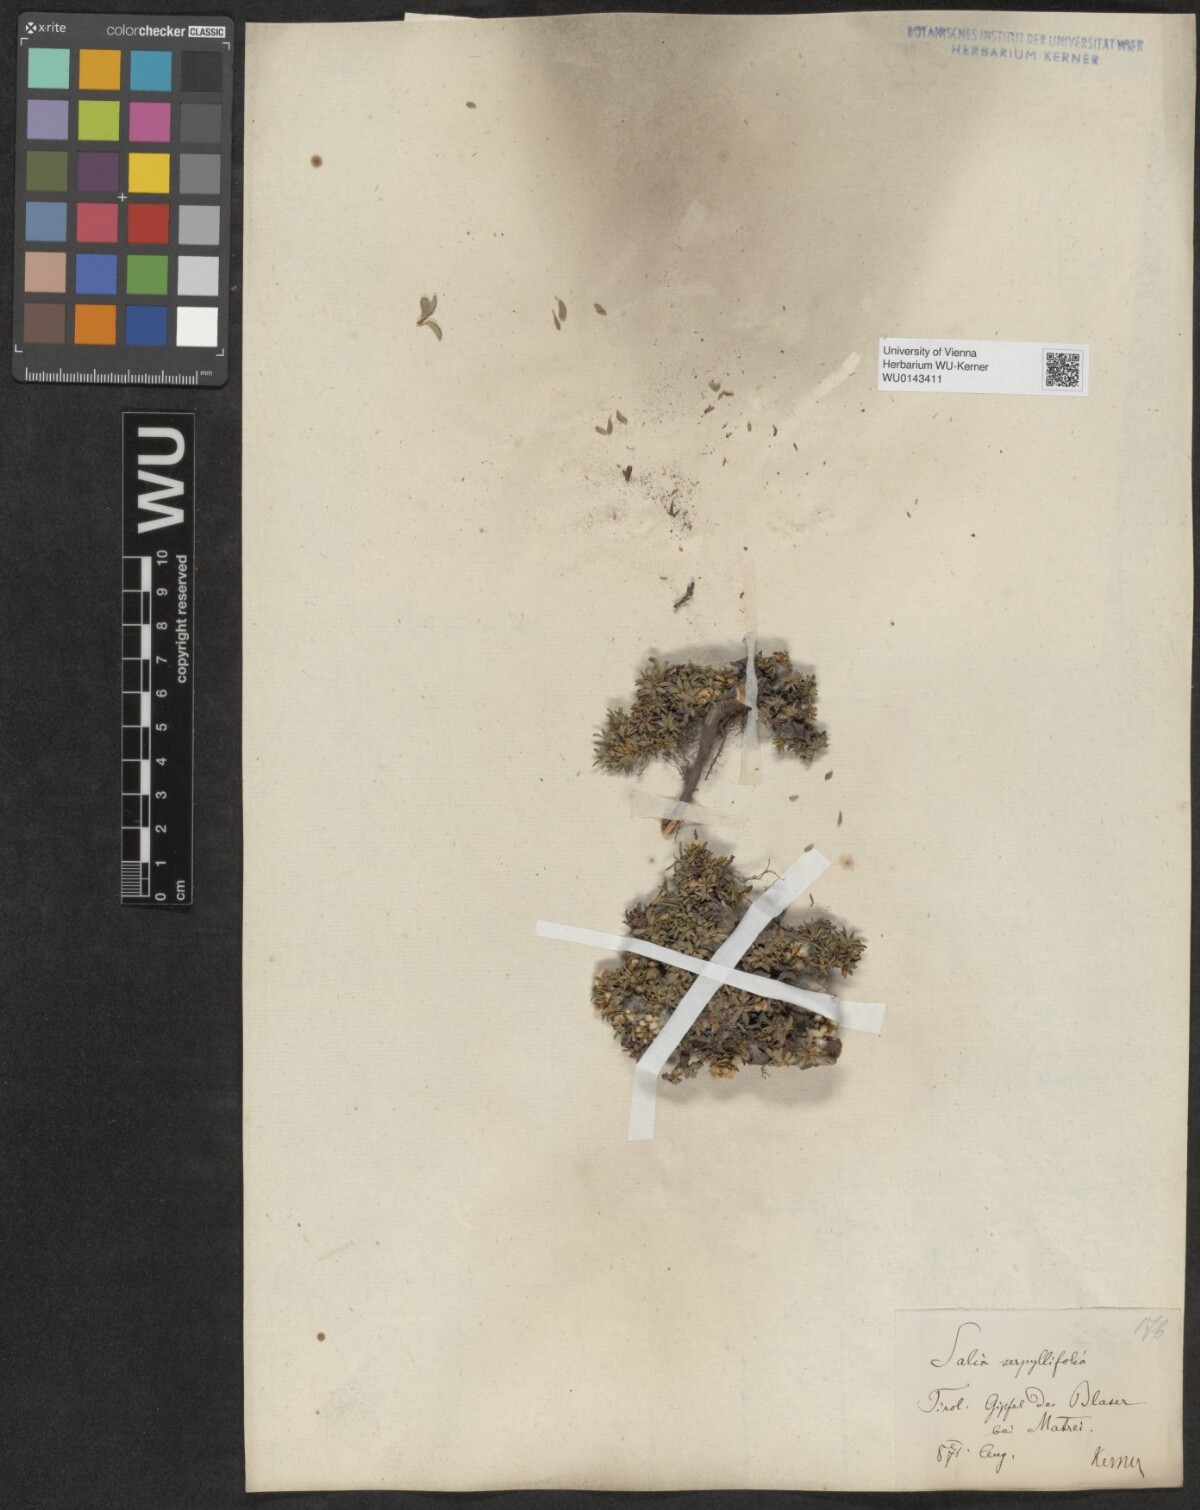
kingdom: Plantae
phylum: Tracheophyta
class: Magnoliopsida
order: Malpighiales
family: Salicaceae
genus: Salix
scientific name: Salix serpillifolia
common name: Thyme-leaf willow
